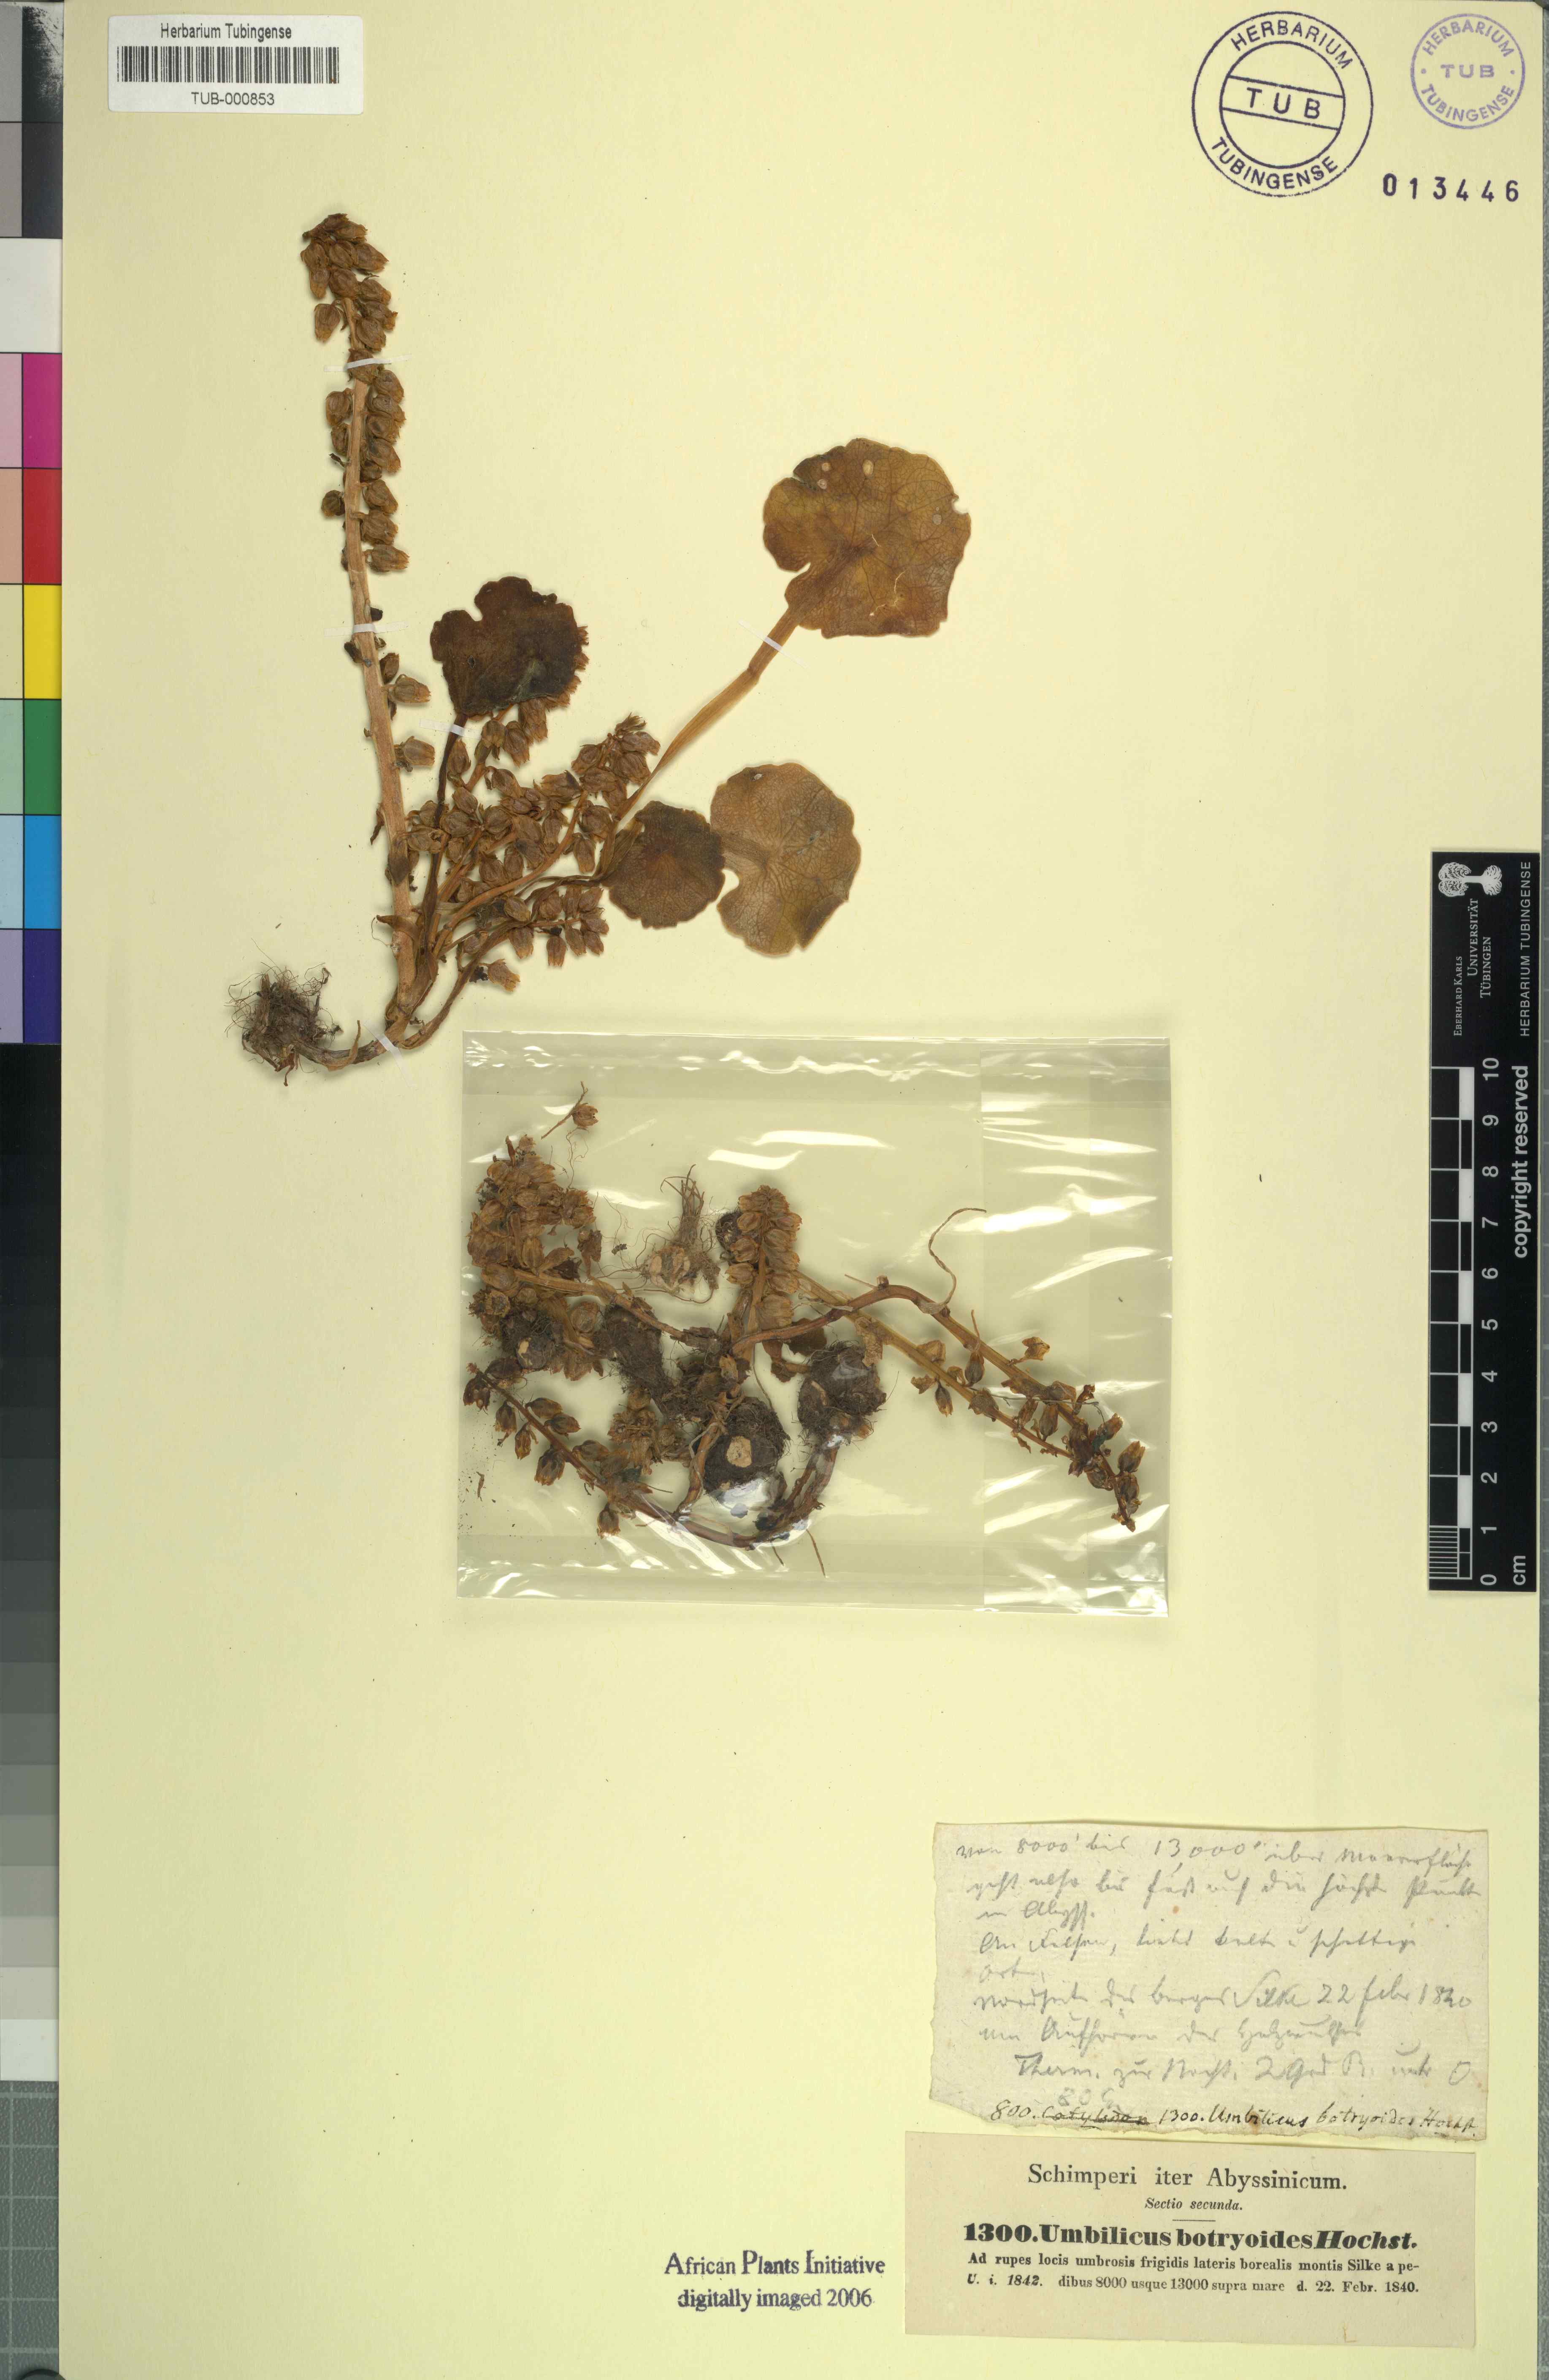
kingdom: Plantae
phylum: Tracheophyta
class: Magnoliopsida
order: Saxifragales
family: Crassulaceae
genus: Umbilicus
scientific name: Umbilicus botryoides
